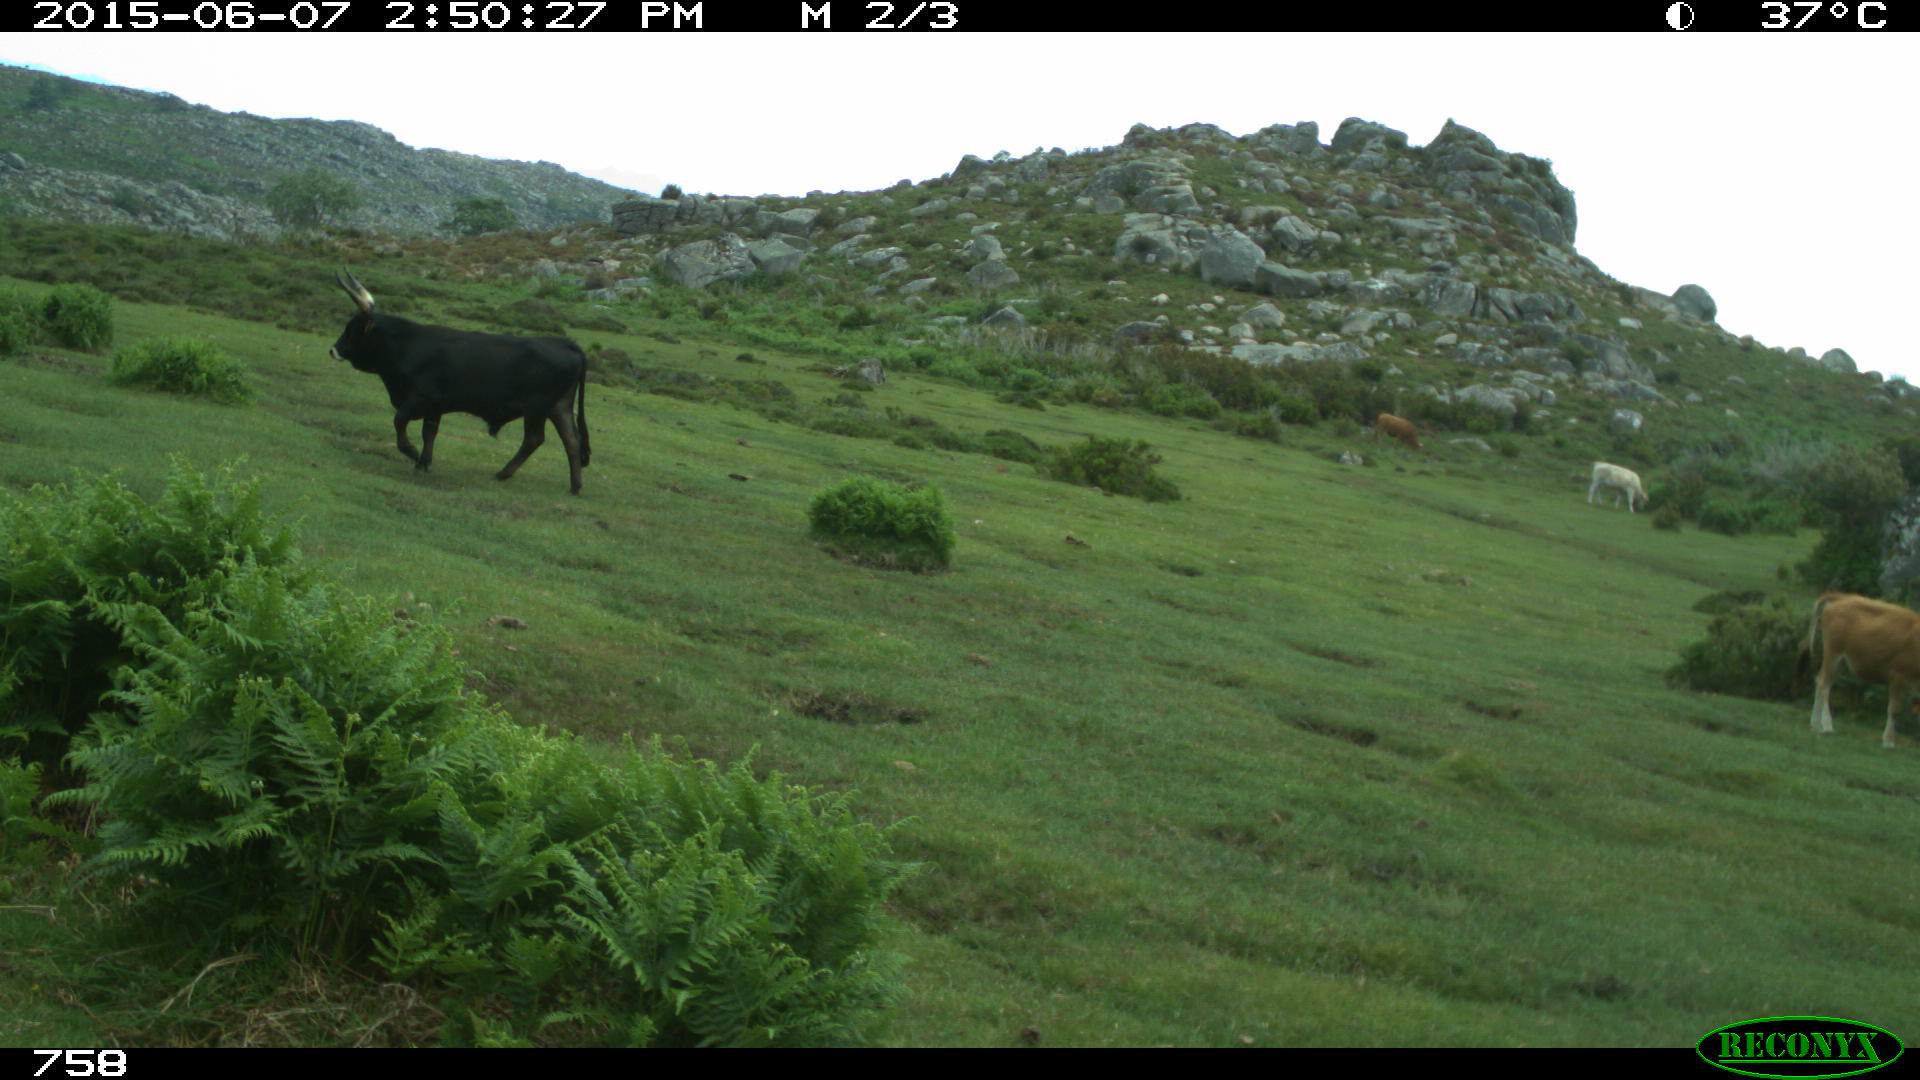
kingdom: Animalia
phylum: Chordata
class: Mammalia
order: Artiodactyla
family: Bovidae
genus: Bos
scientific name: Bos taurus
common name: Domesticated cattle
